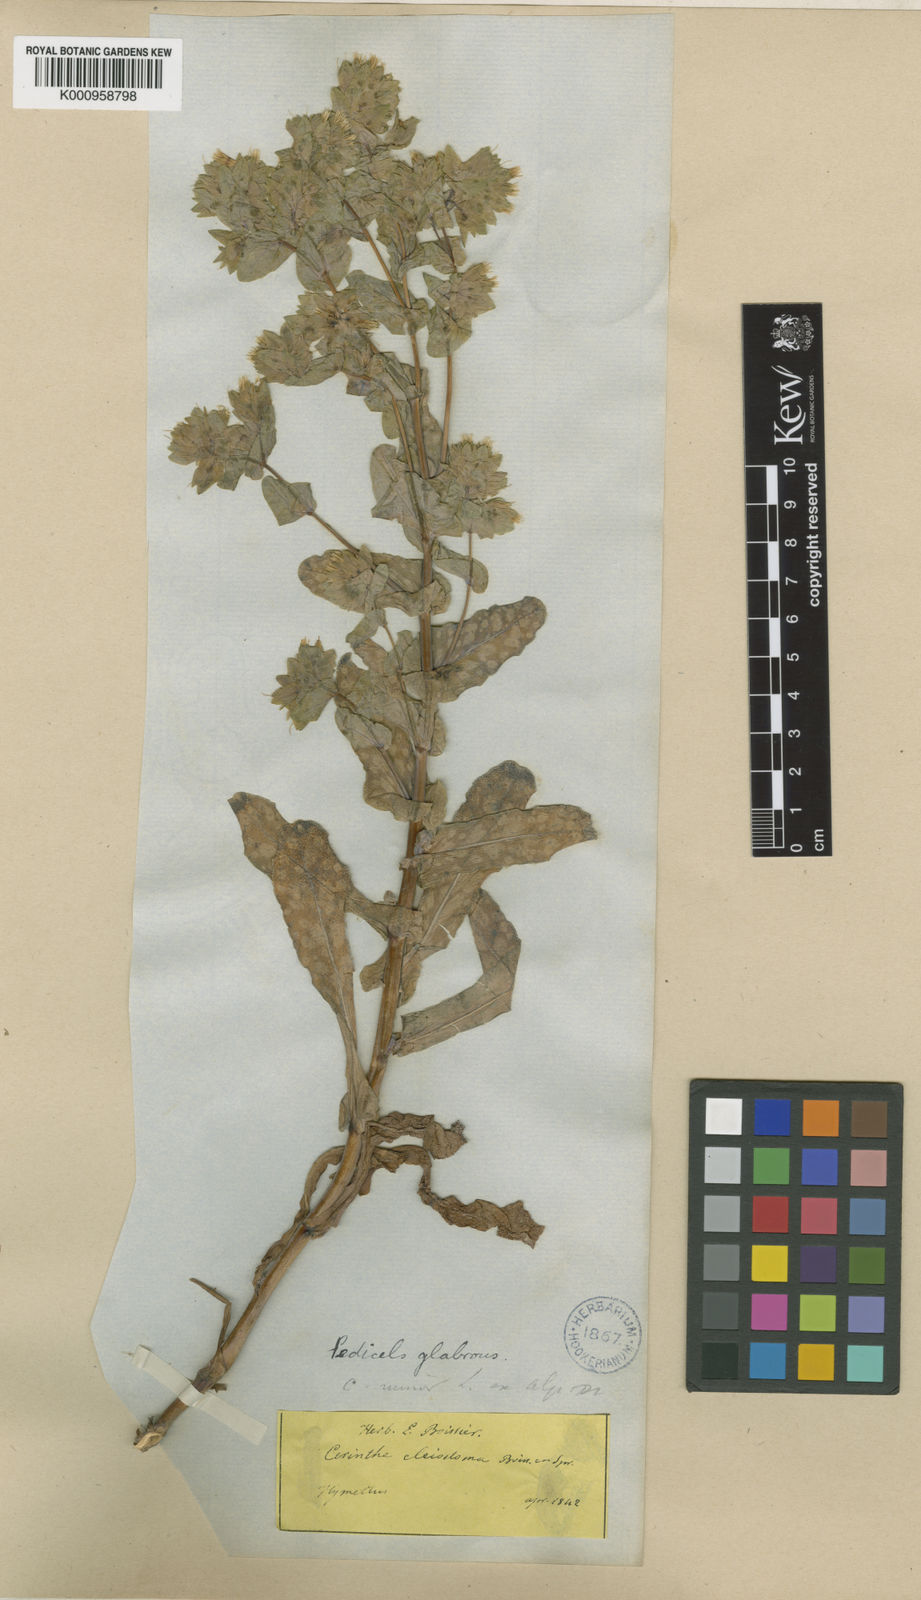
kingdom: Plantae
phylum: Tracheophyta
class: Magnoliopsida
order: Boraginales
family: Boraginaceae
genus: Cerinthe
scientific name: Cerinthe minor
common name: Lesser honeywort
